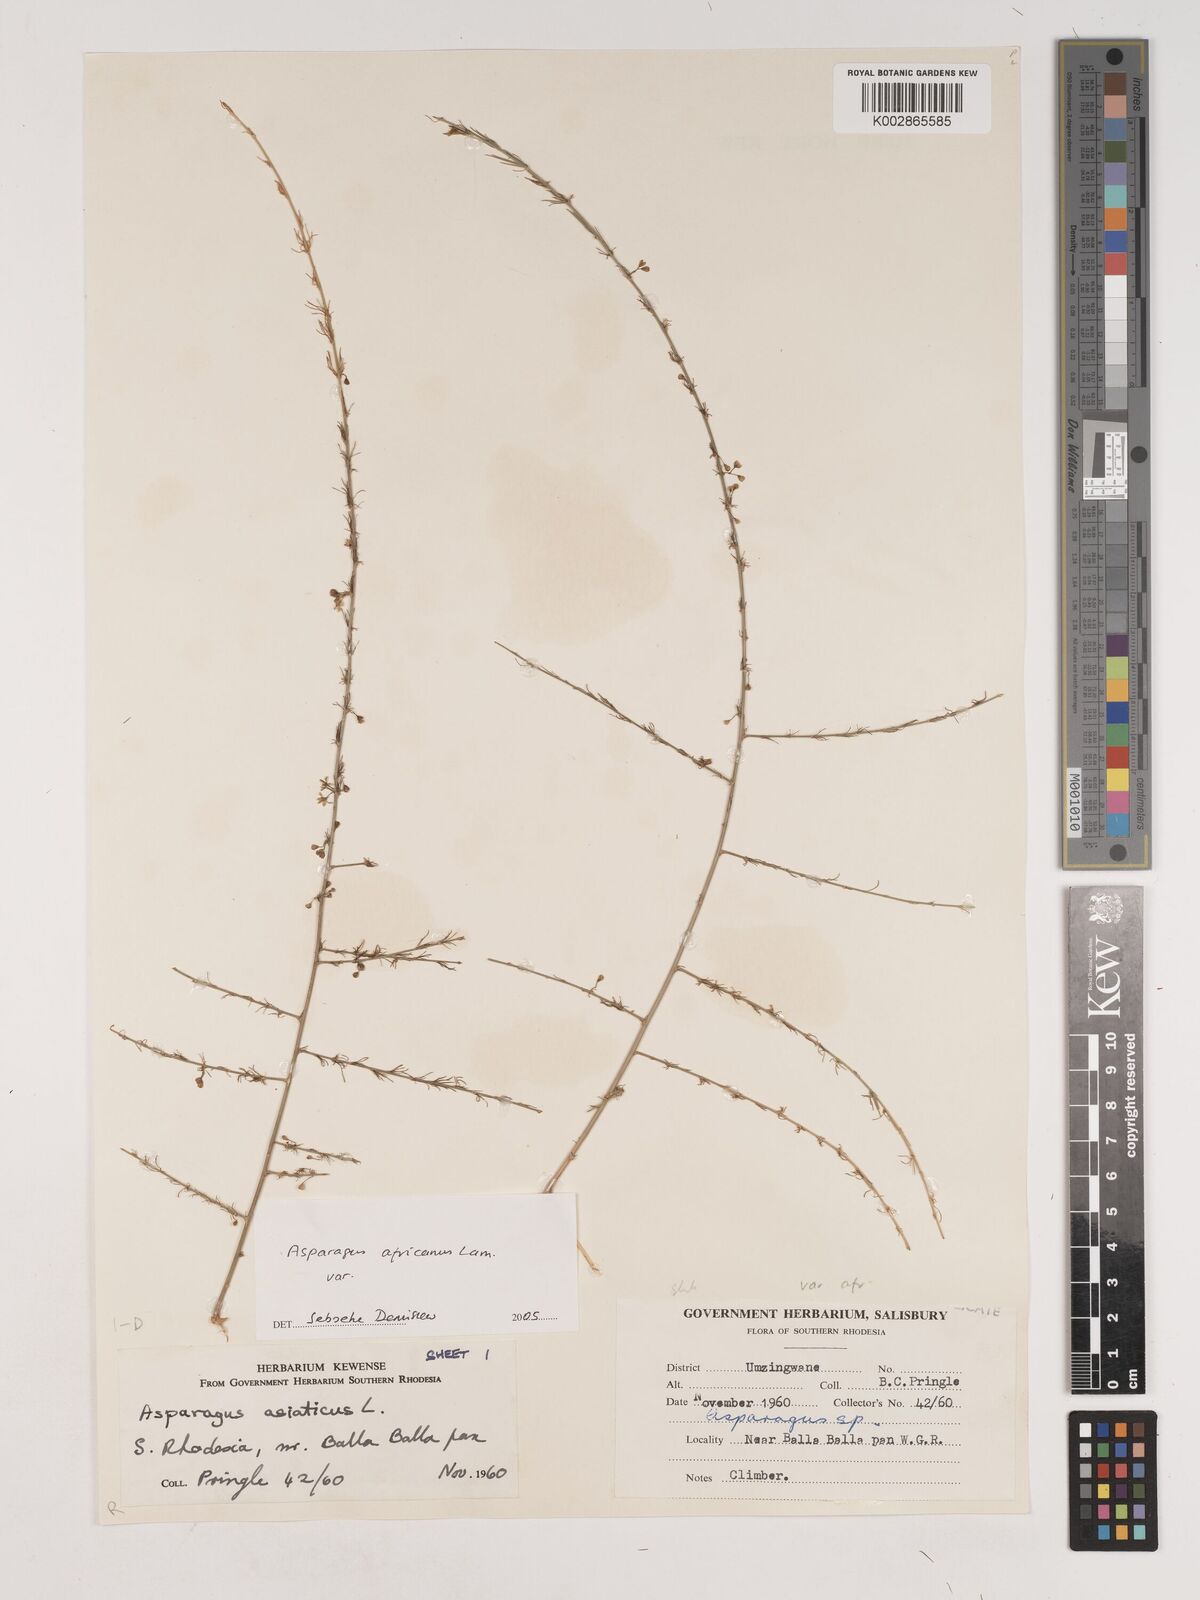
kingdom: Plantae
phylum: Tracheophyta
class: Liliopsida
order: Asparagales
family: Asparagaceae
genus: Asparagus
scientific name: Asparagus africanus
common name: Asparagus-fern
